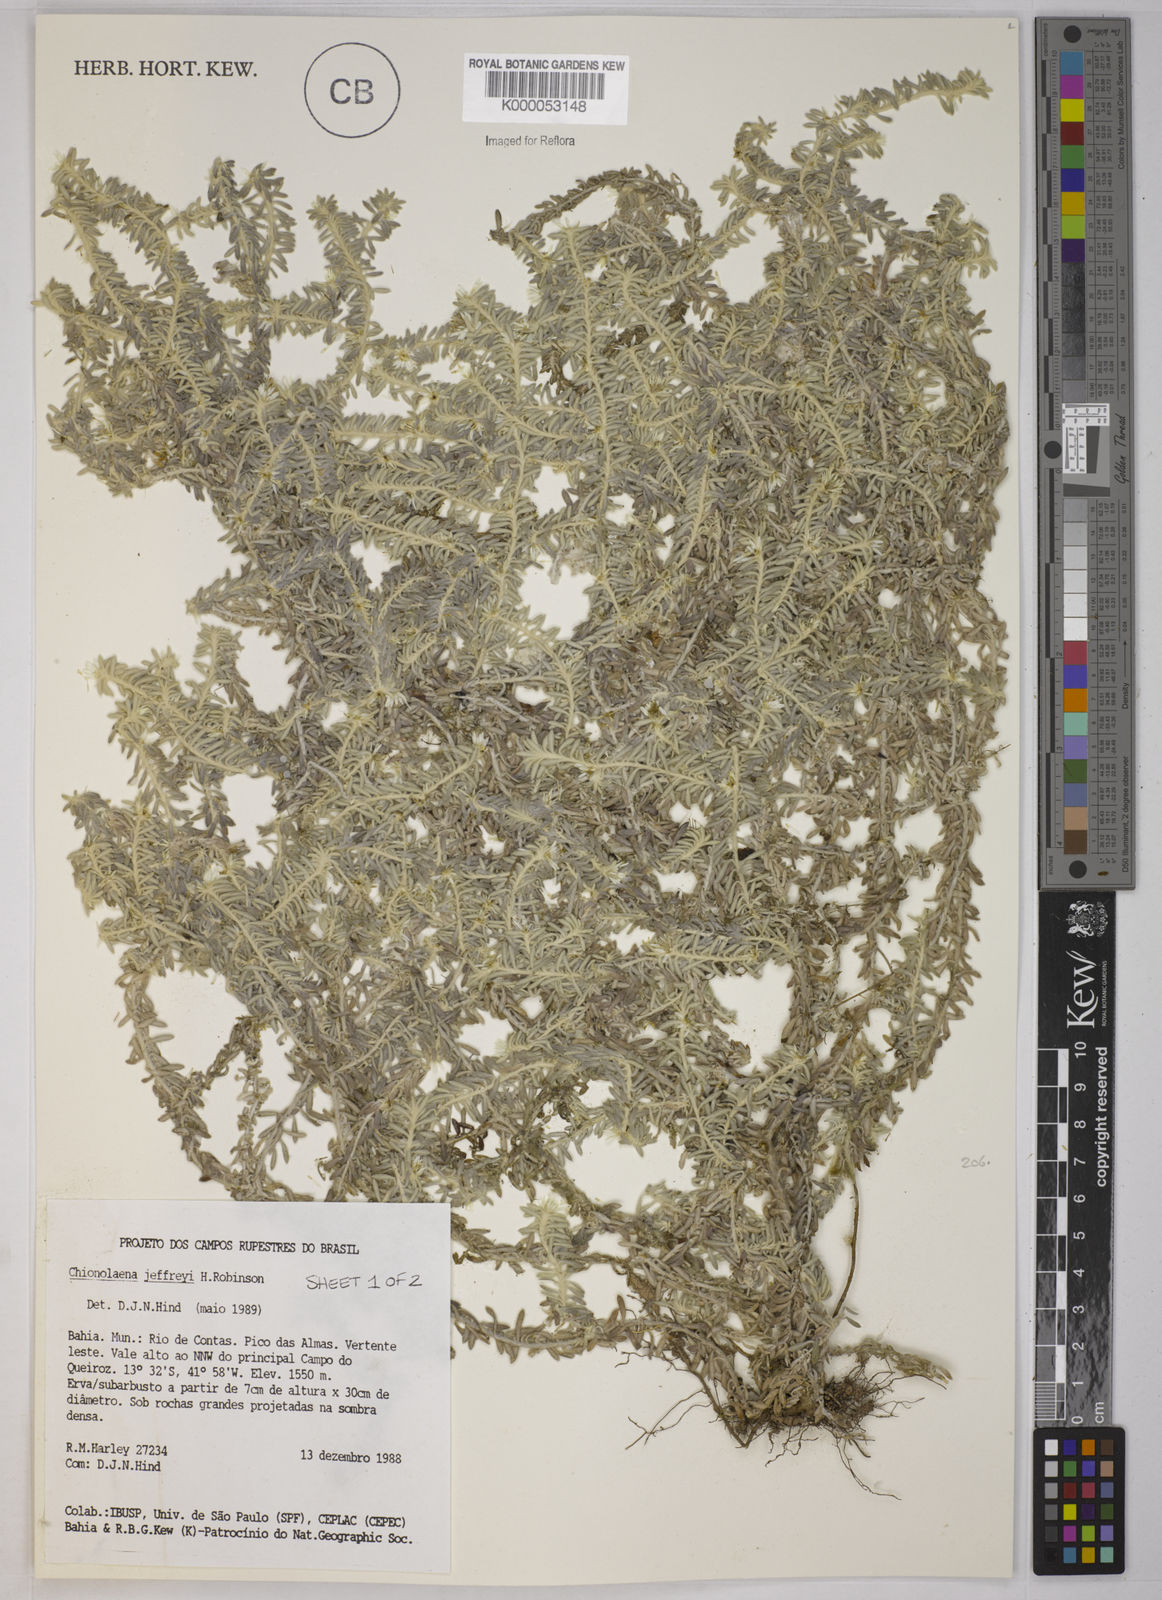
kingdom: Plantae
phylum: Tracheophyta
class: Magnoliopsida
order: Asterales
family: Asteraceae
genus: Chionolaena
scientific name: Chionolaena jeffreyi
